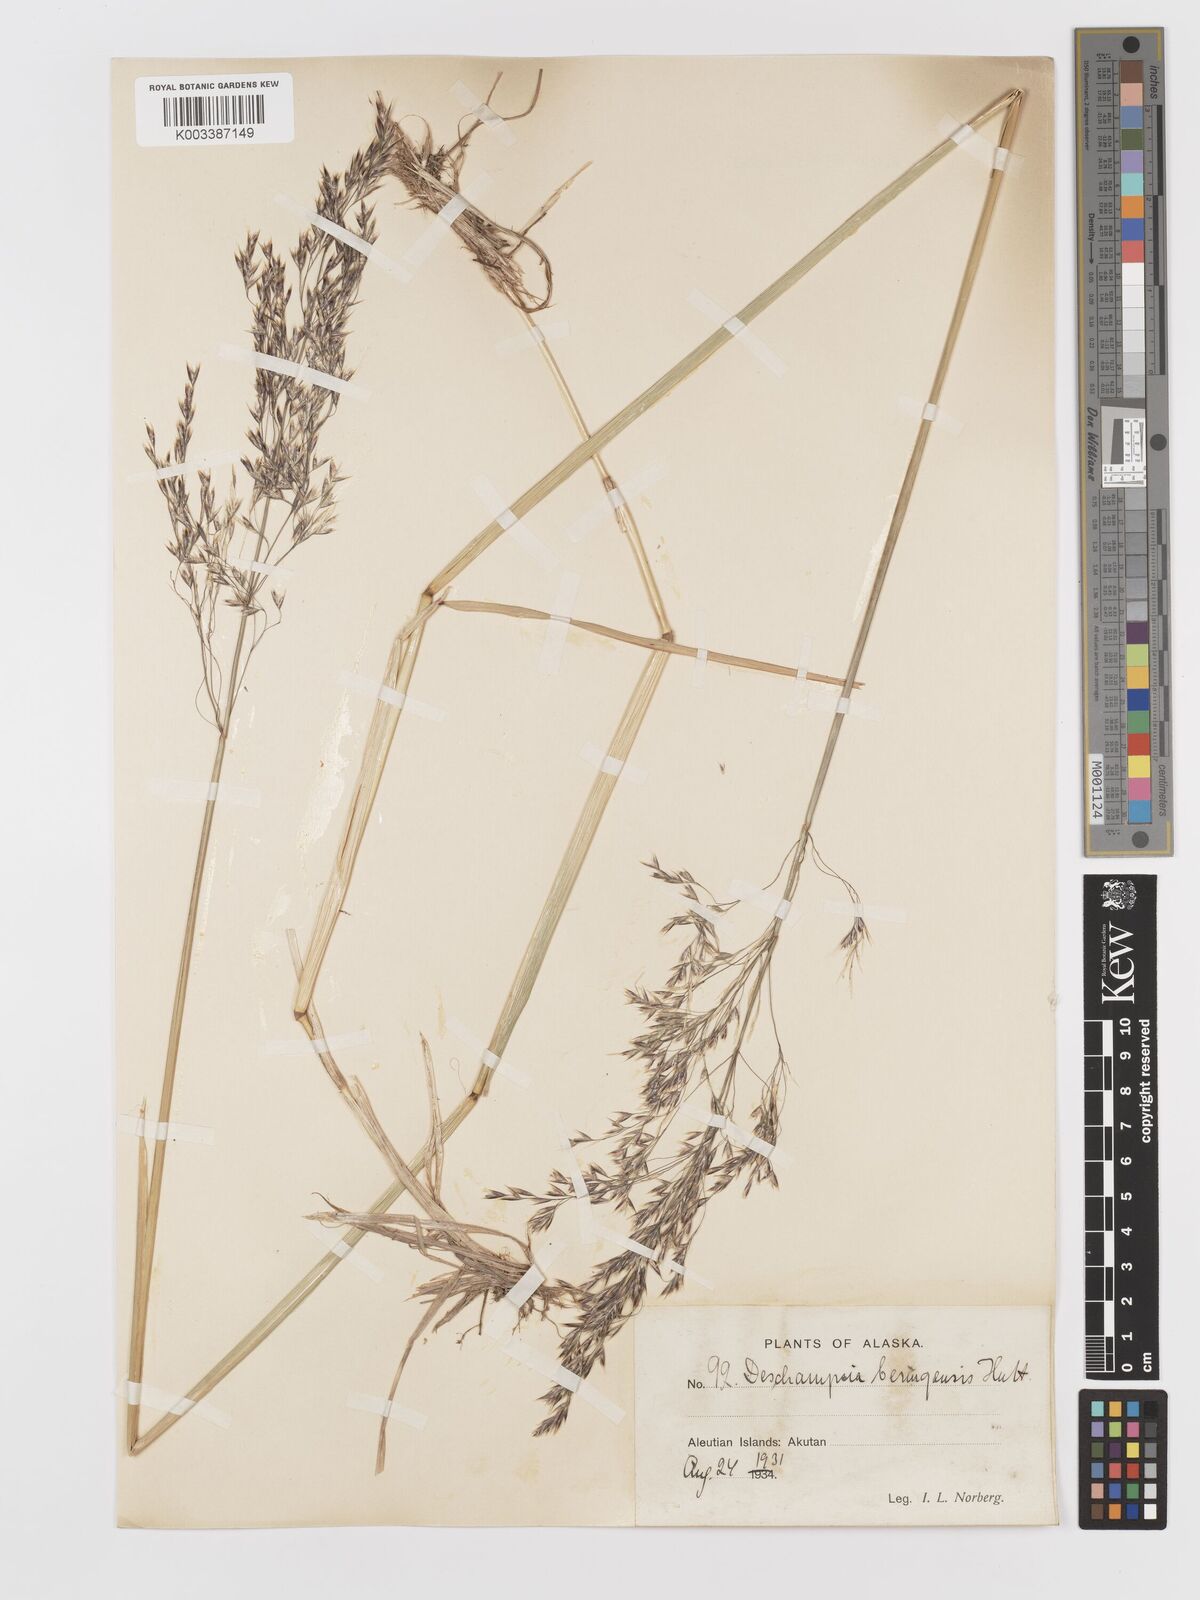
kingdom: Plantae
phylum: Tracheophyta
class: Liliopsida
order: Poales
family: Poaceae
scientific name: Poaceae
